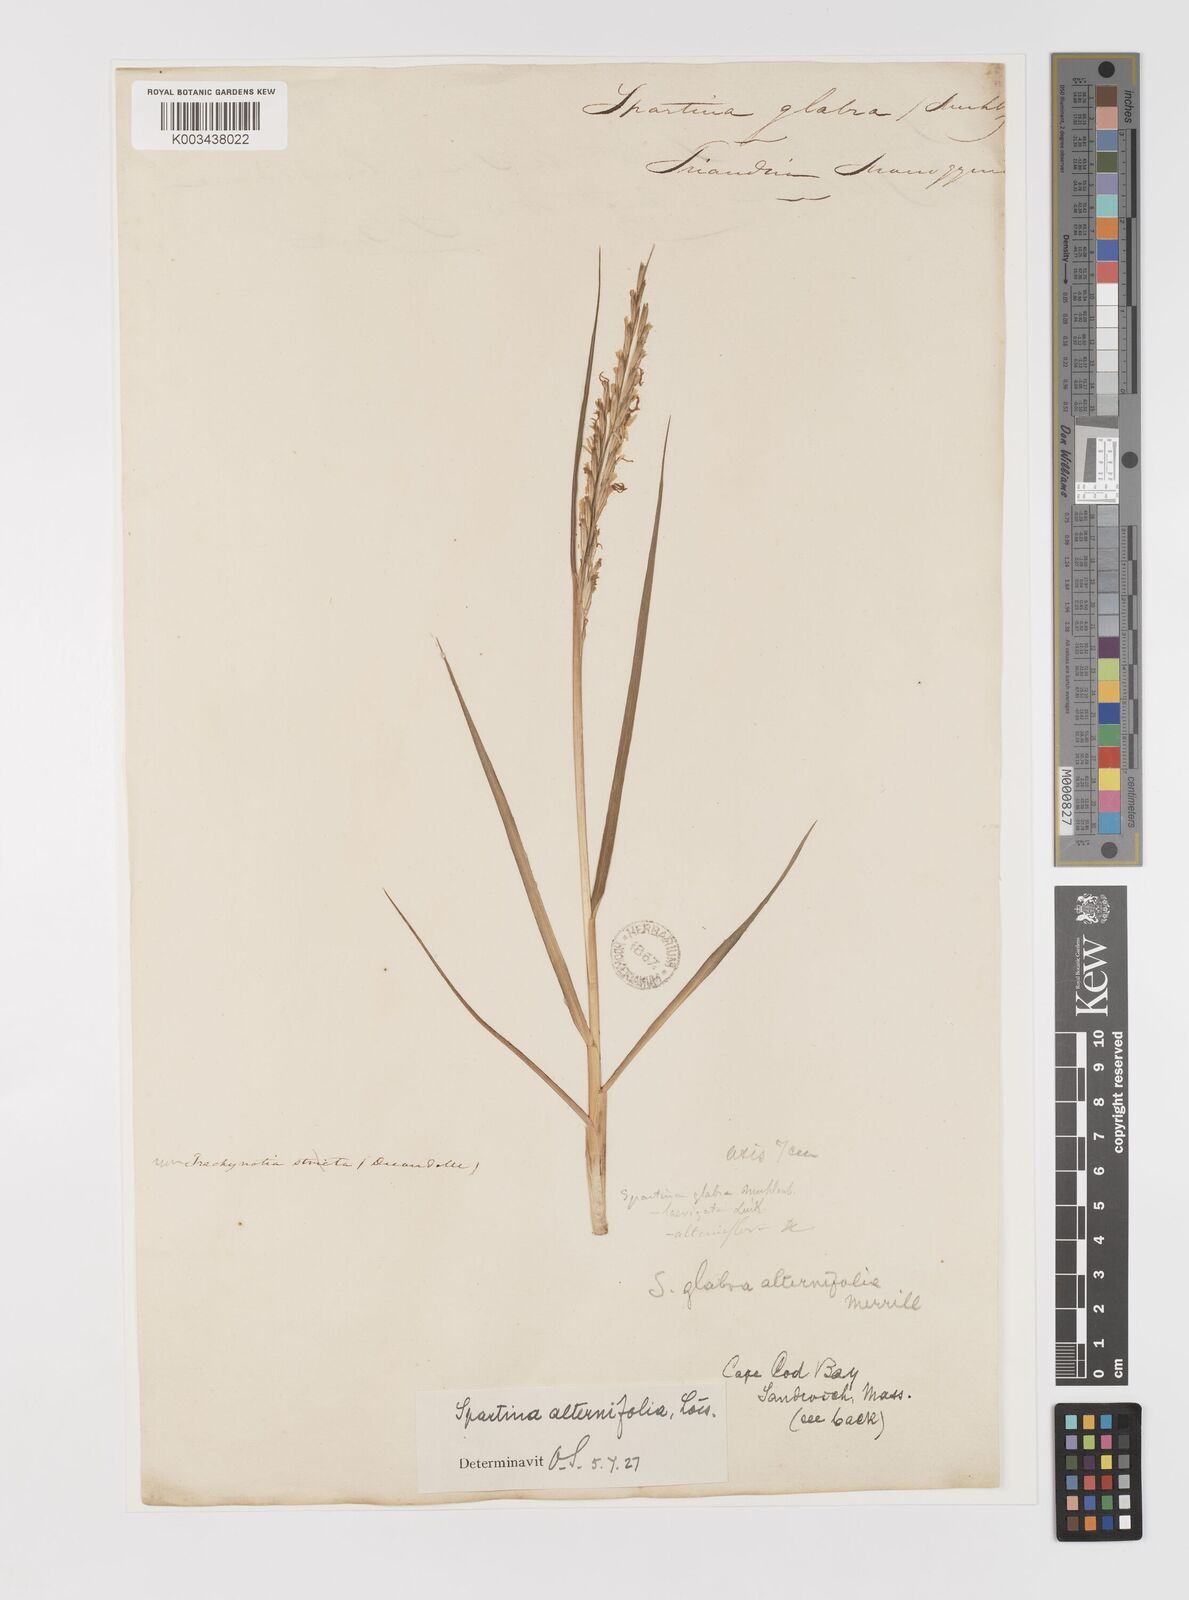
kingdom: Animalia
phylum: Mollusca
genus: Spartina
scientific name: Spartina
